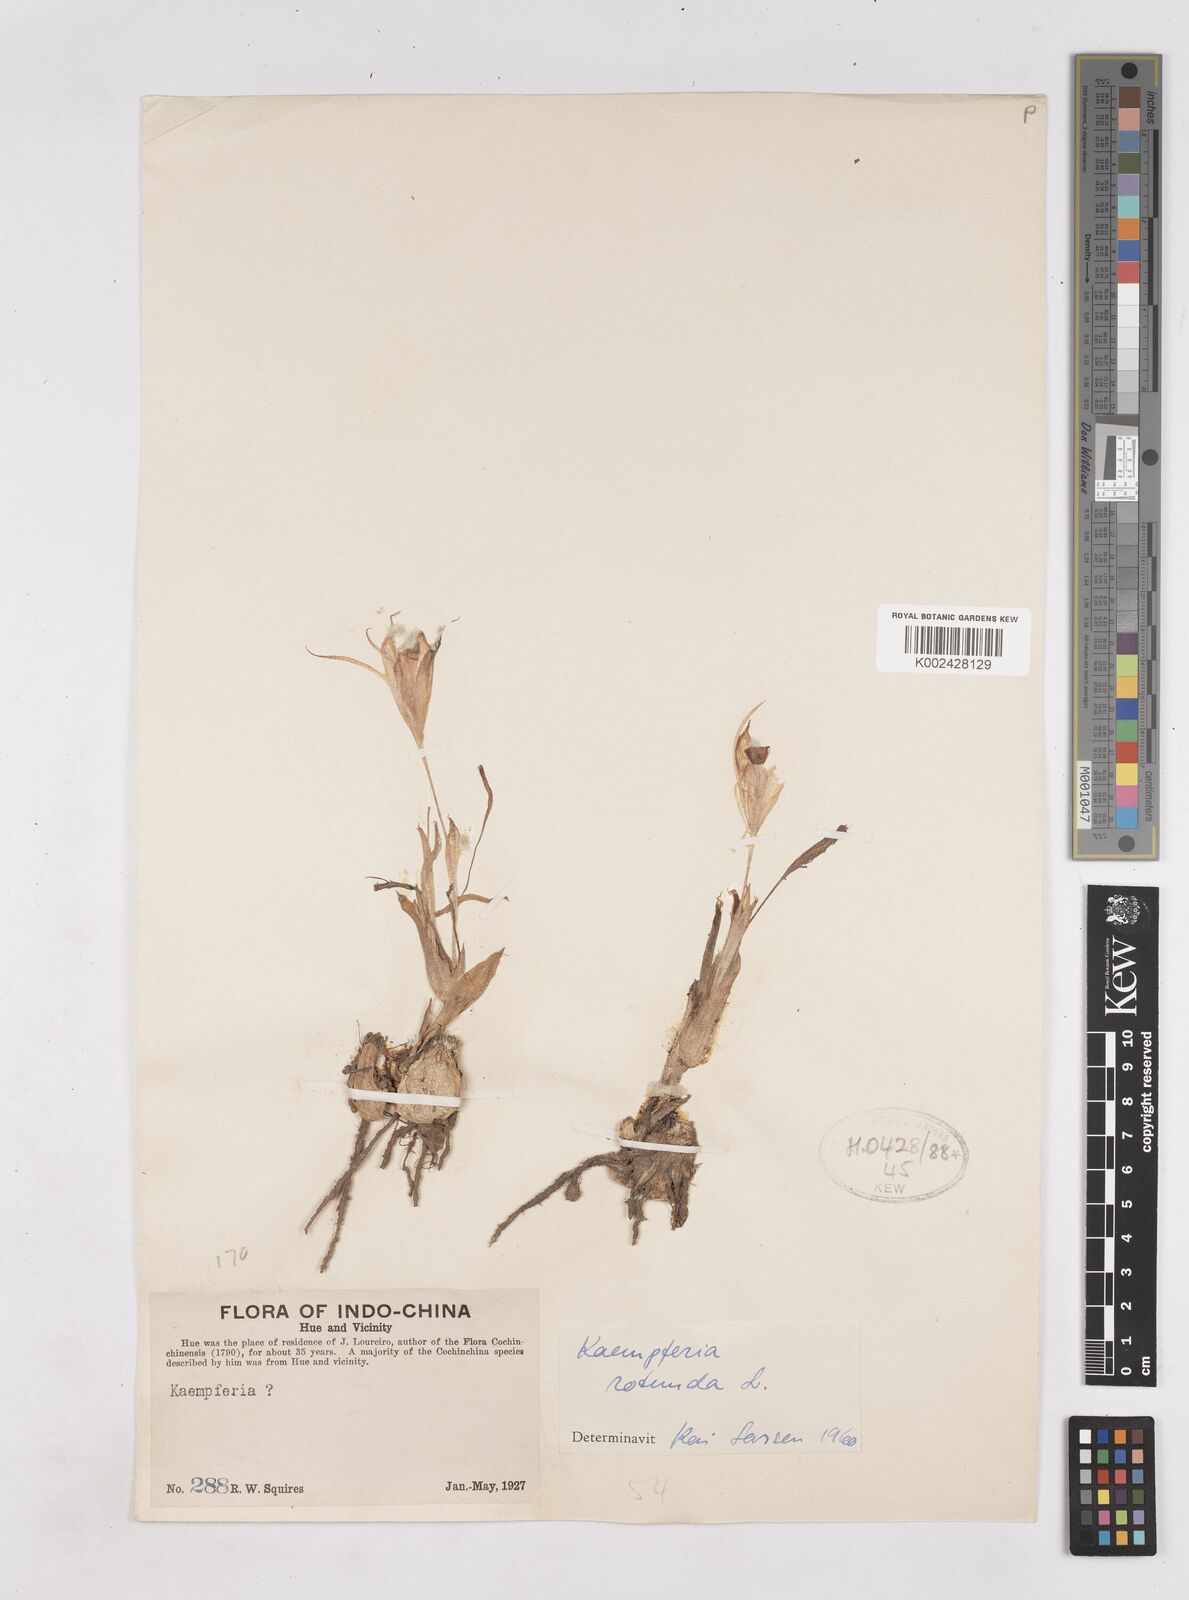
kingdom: Plantae
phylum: Tracheophyta
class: Liliopsida
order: Zingiberales
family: Zingiberaceae
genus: Kaempferia
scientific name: Kaempferia rotunda
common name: Tropical-crocus
